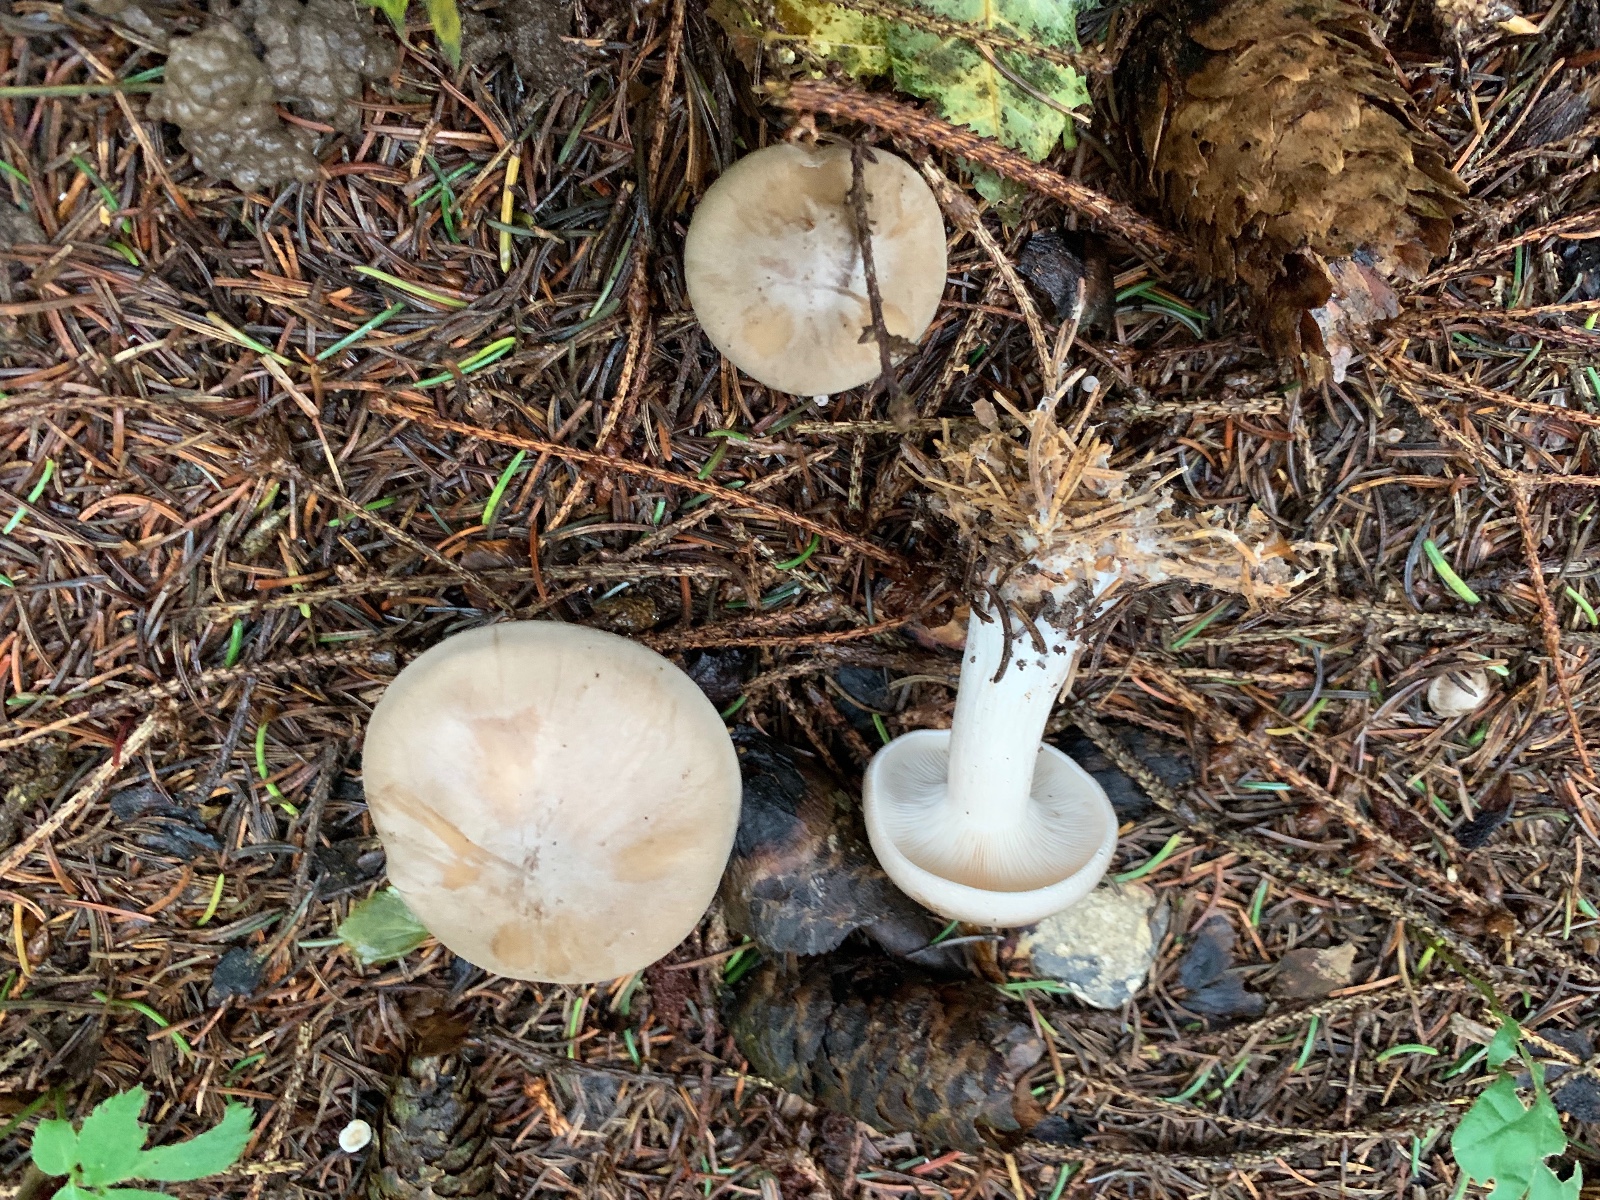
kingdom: Fungi
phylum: Basidiomycota
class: Agaricomycetes
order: Agaricales
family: Tricholomataceae
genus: Clitocybe
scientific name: Clitocybe nebularis
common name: tåge-tragthat
